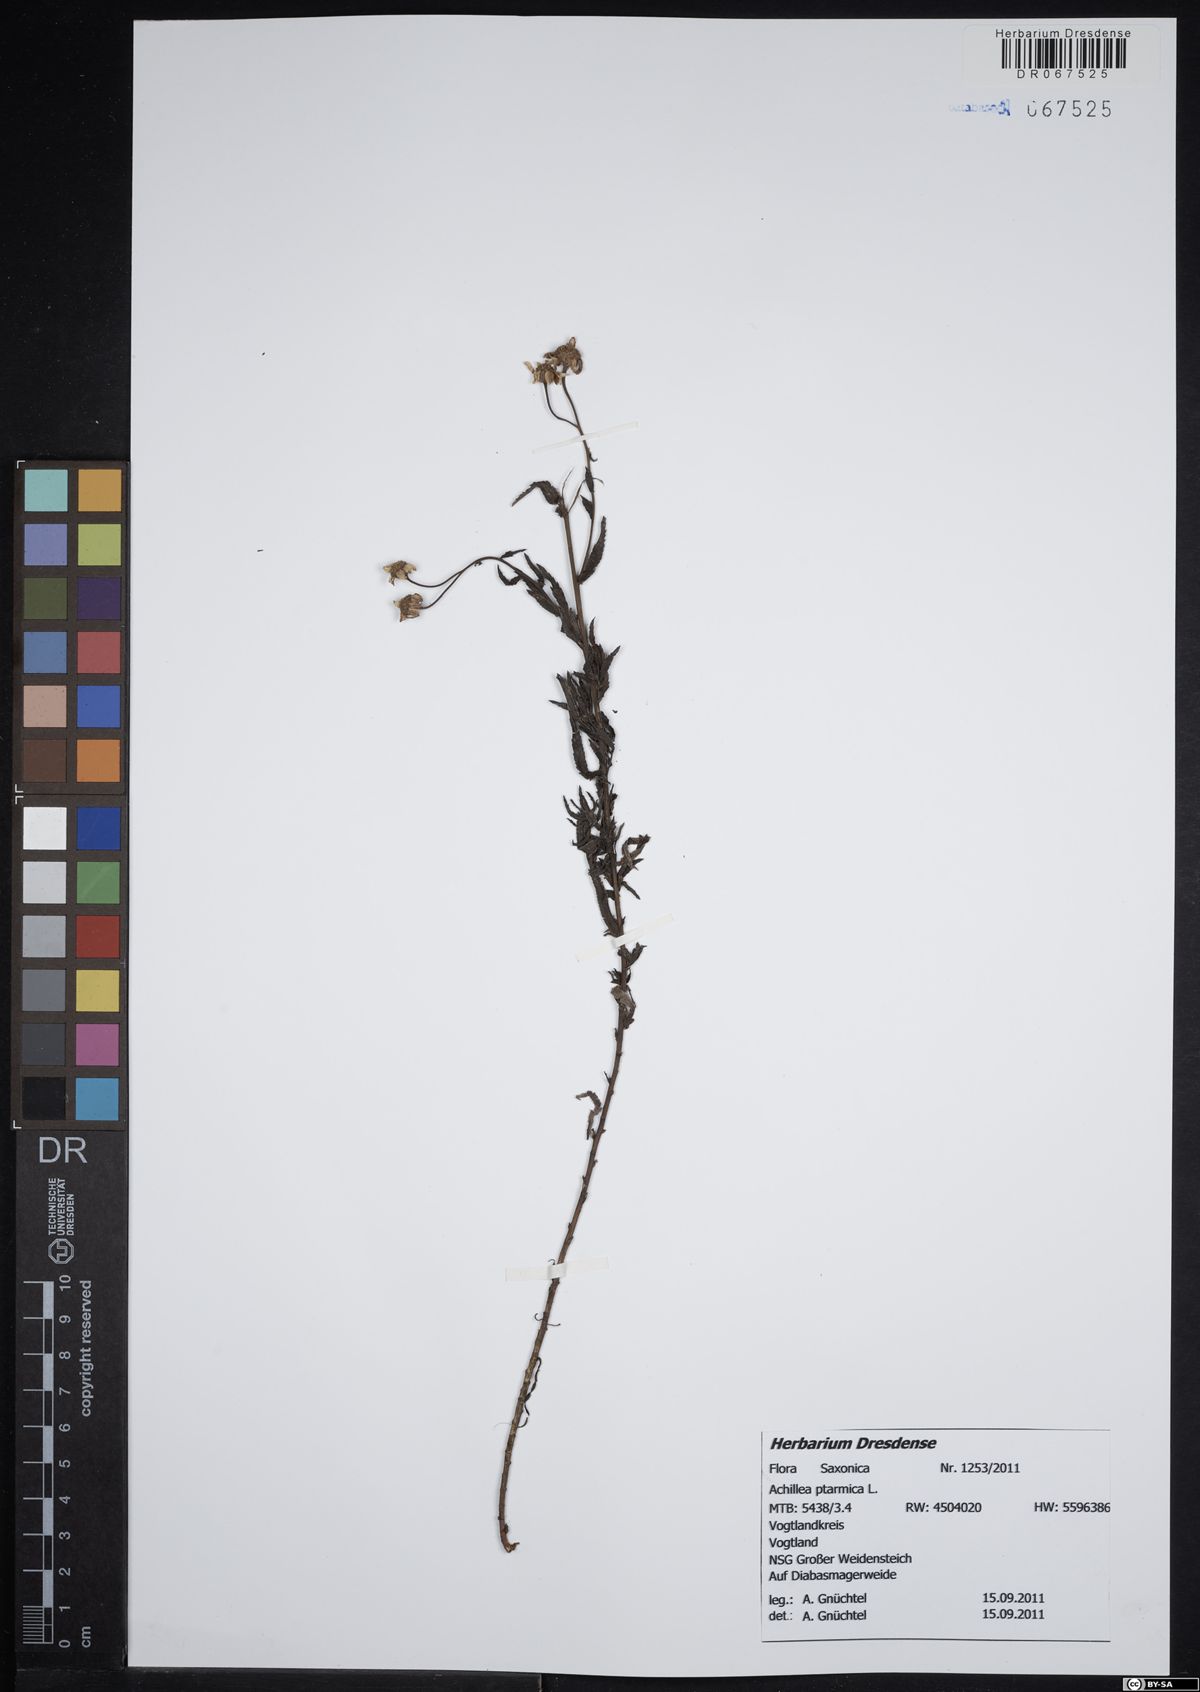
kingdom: Plantae
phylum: Tracheophyta
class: Magnoliopsida
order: Asterales
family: Asteraceae
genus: Achillea
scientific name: Achillea ptarmica
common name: Sneezeweed
